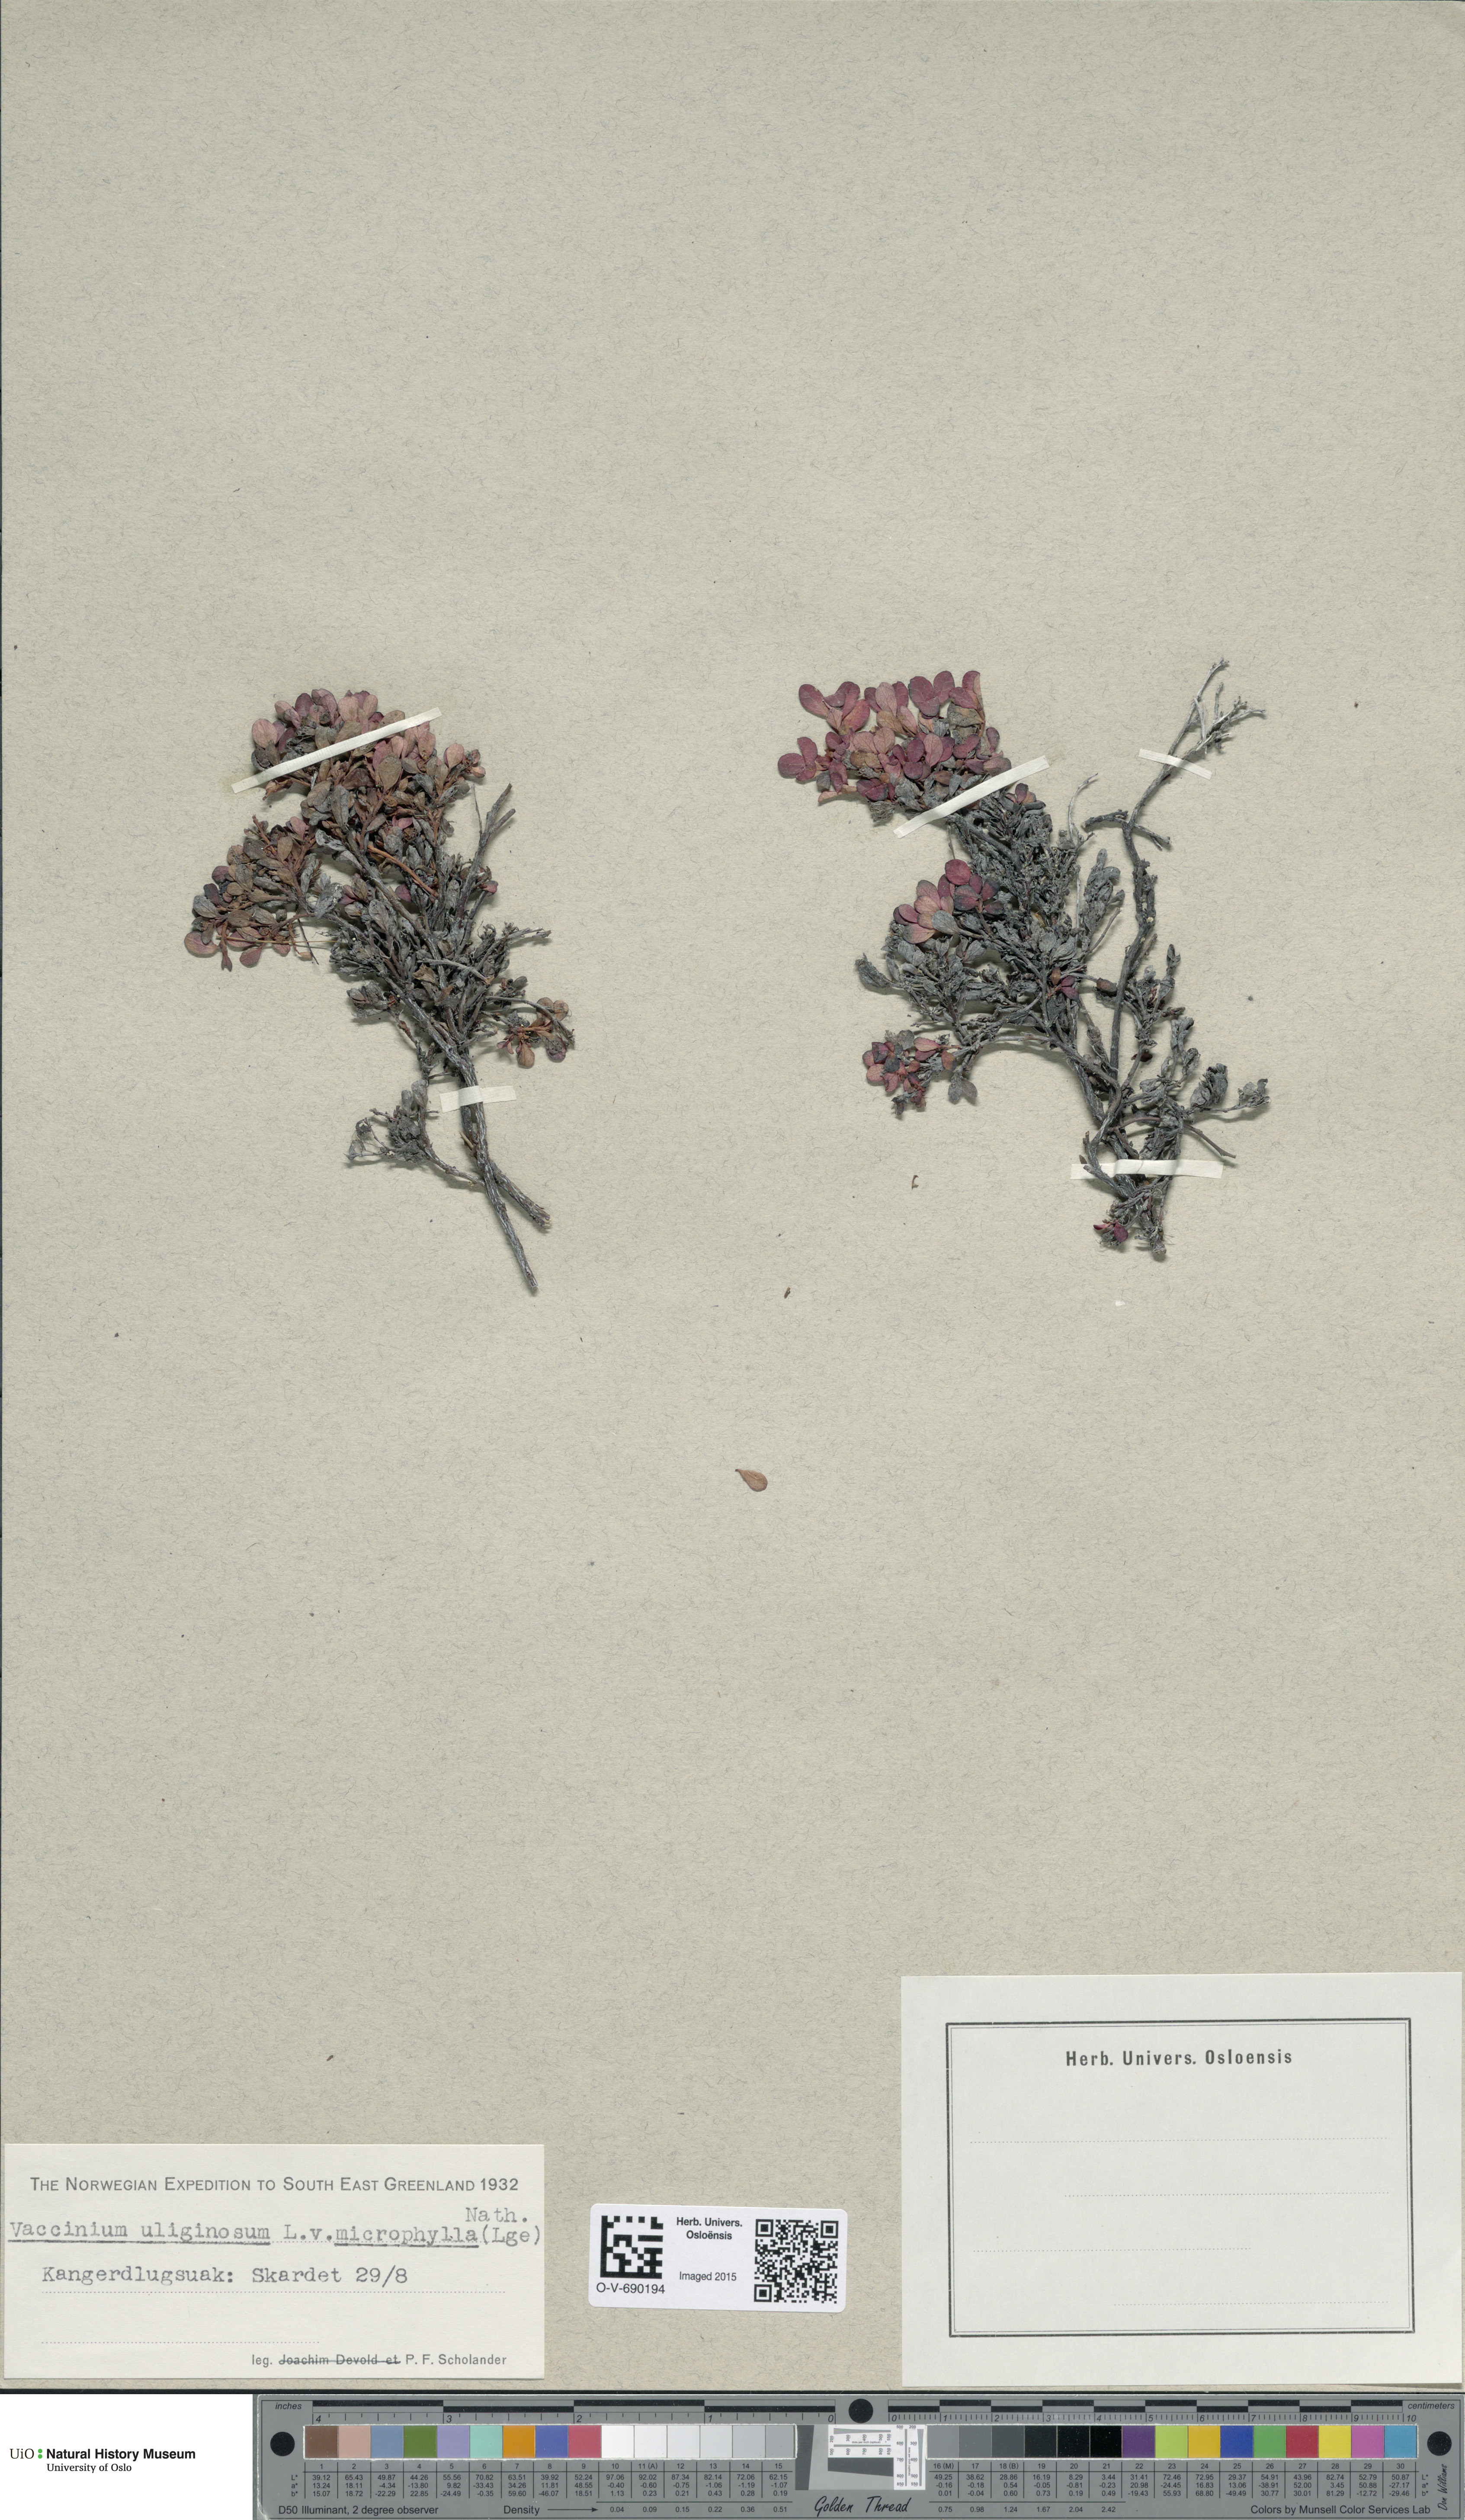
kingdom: Plantae
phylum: Tracheophyta
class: Magnoliopsida
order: Ericales
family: Ericaceae
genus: Vaccinium
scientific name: Vaccinium uliginosum
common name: Bog bilberry
